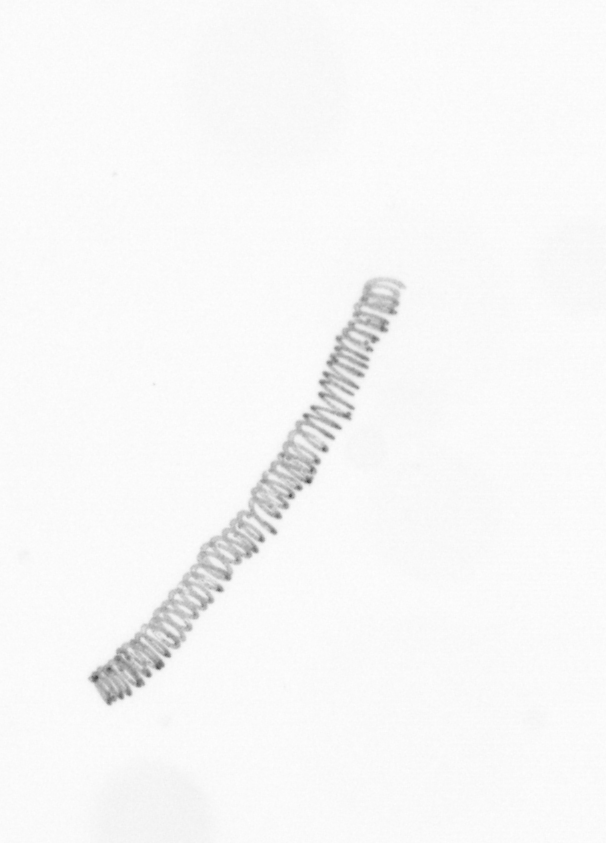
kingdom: Chromista
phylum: Ochrophyta
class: Bacillariophyceae
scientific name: Bacillariophyceae
